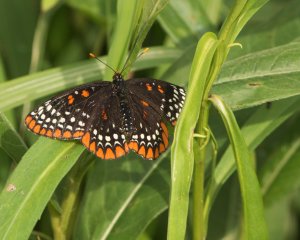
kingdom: Animalia
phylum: Arthropoda
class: Insecta
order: Lepidoptera
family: Nymphalidae
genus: Euphydryas
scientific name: Euphydryas phaeton
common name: Baltimore Checkerspot
